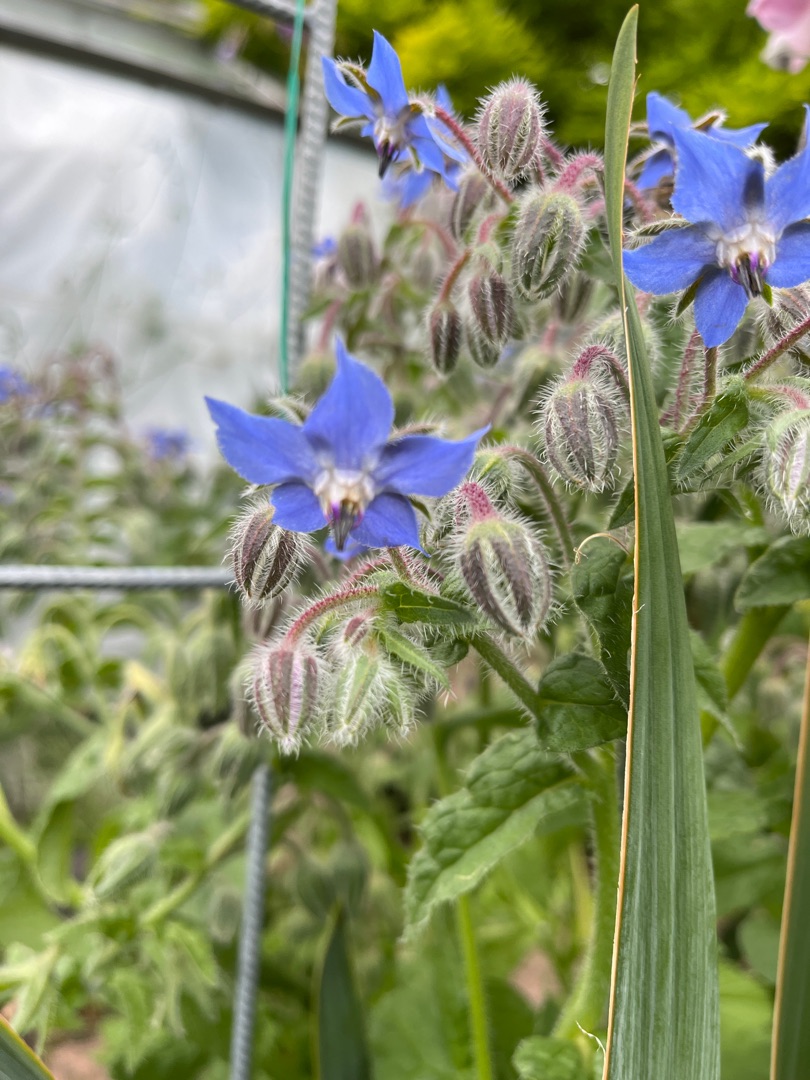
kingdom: Plantae
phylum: Tracheophyta
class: Magnoliopsida
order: Boraginales
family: Boraginaceae
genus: Borago
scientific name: Borago officinalis
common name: Hjulkrone
